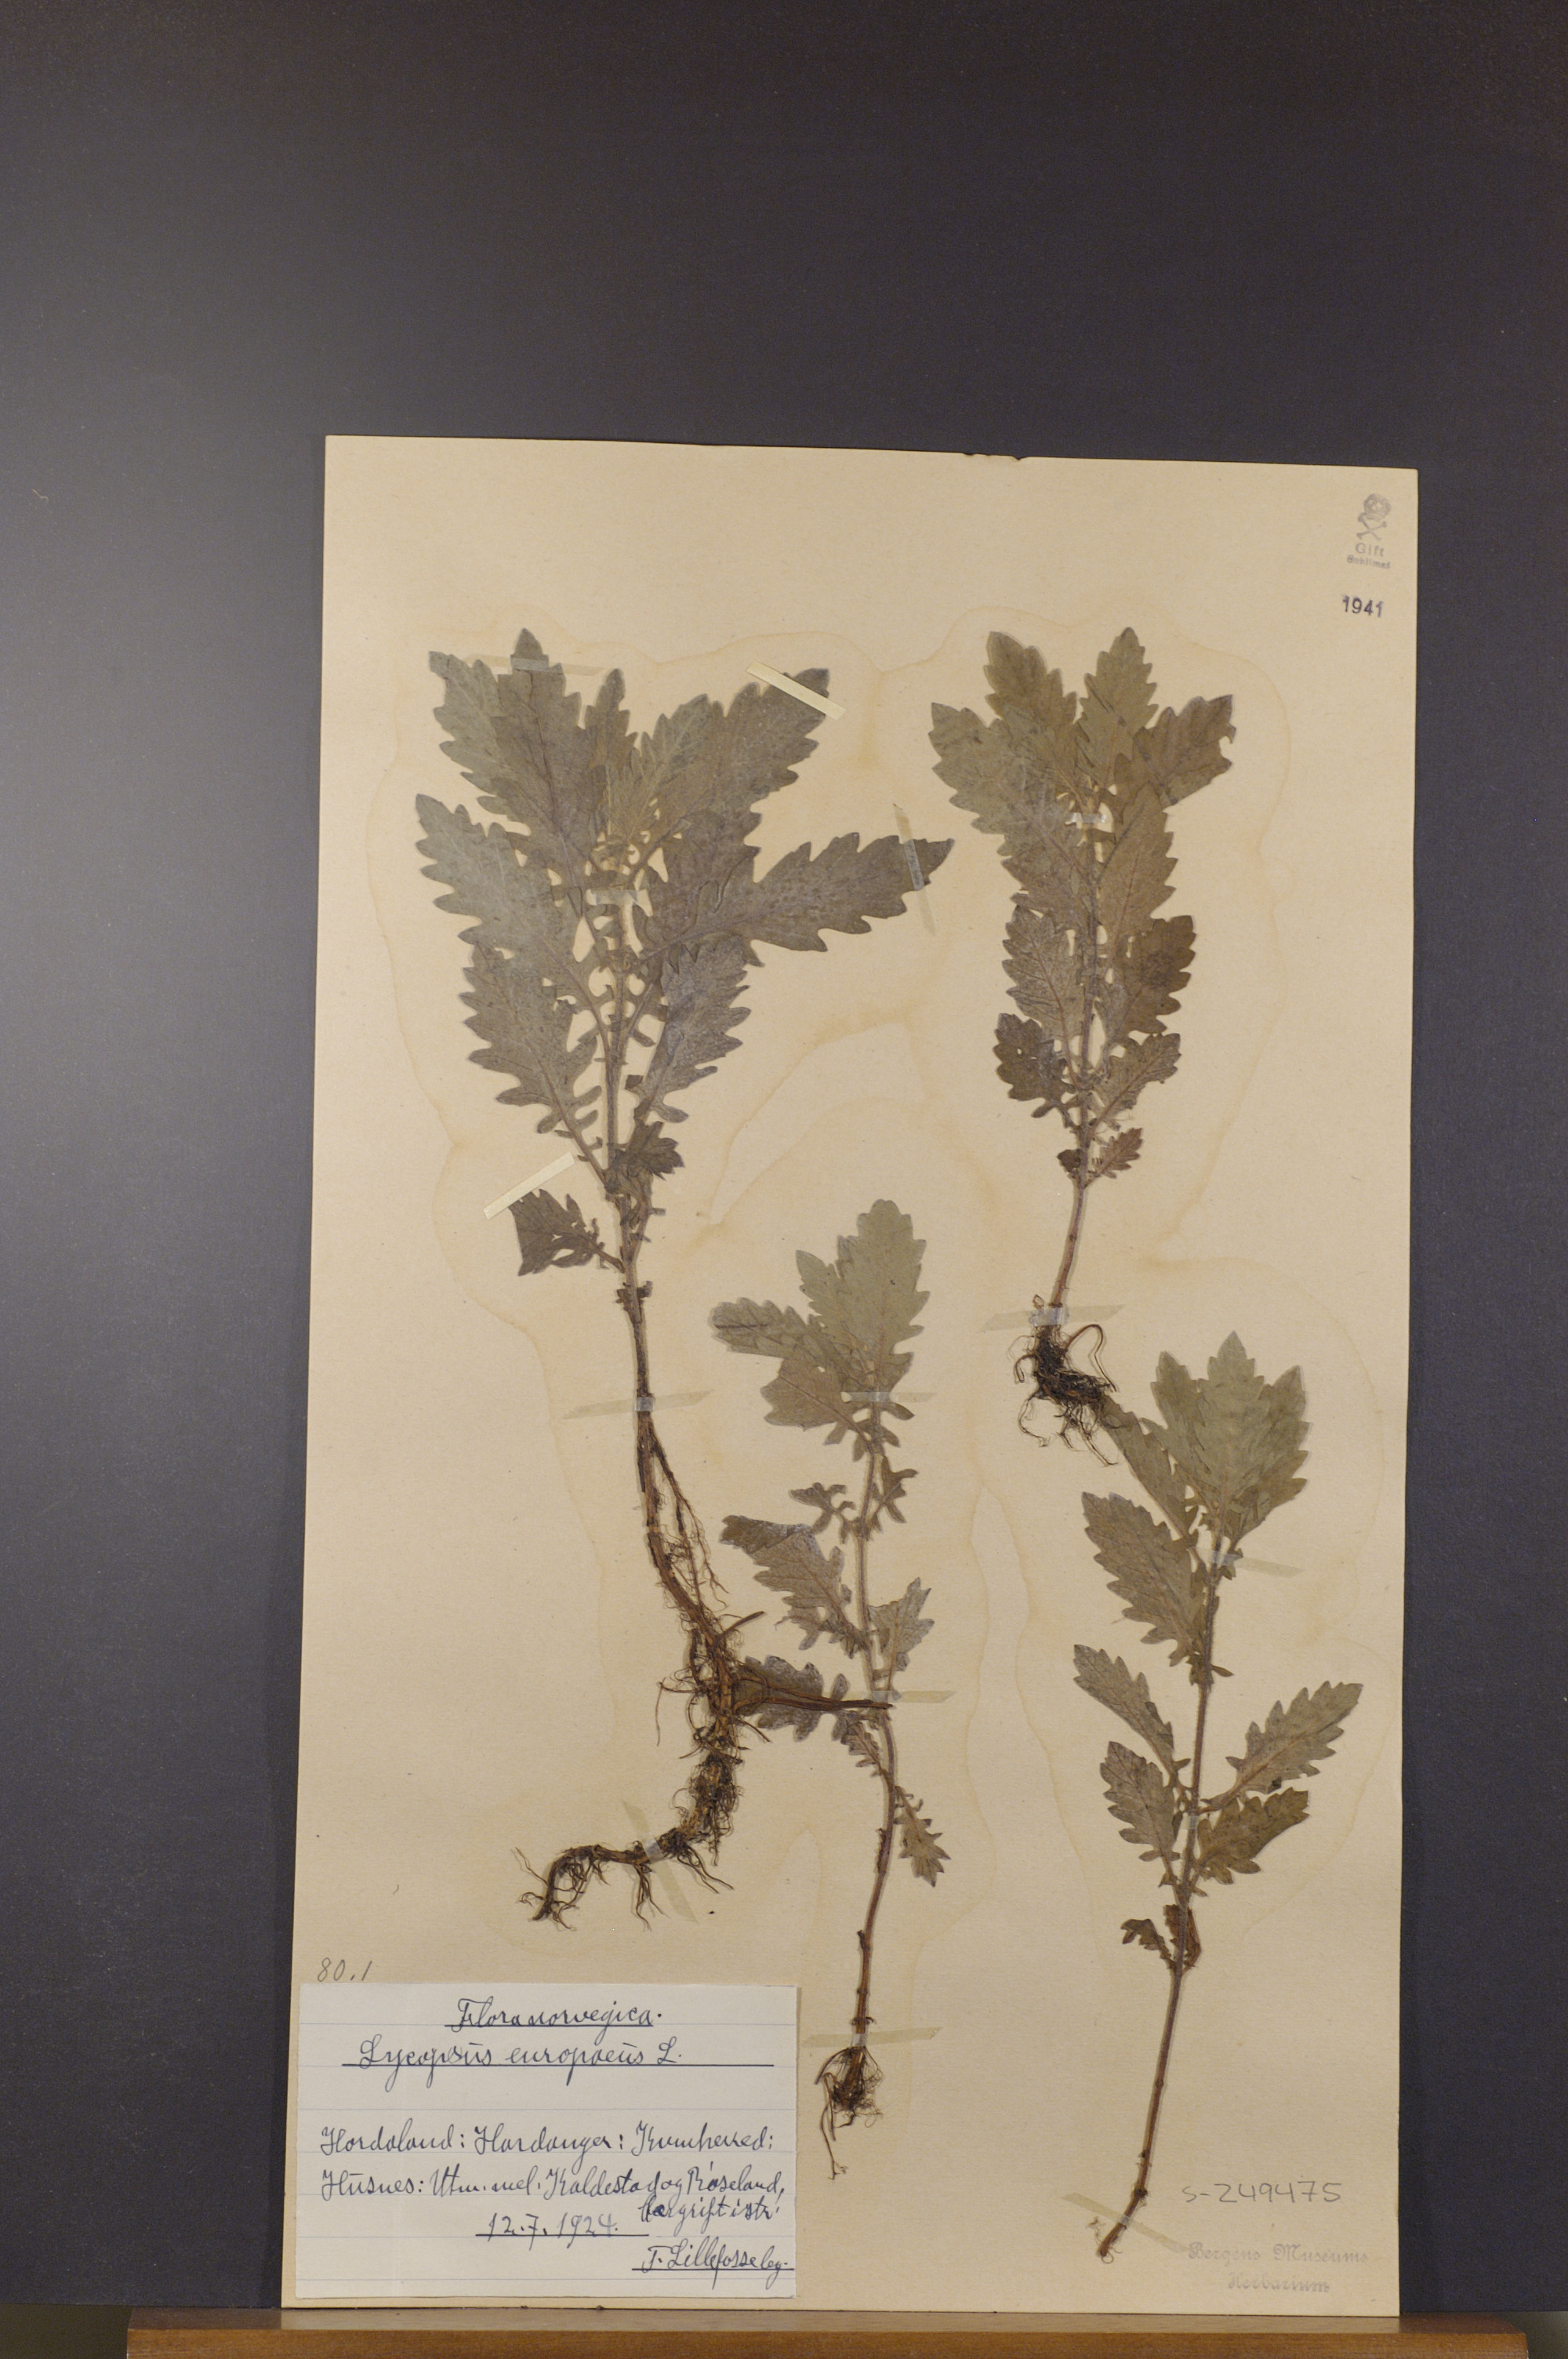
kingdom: Plantae
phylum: Tracheophyta
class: Magnoliopsida
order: Lamiales
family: Lamiaceae
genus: Lycopus
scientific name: Lycopus europaeus
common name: European bugleweed
